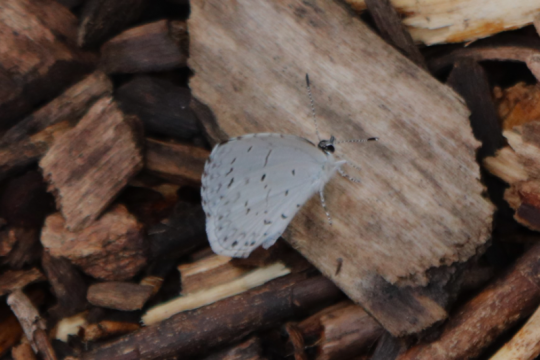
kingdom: Animalia
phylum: Arthropoda
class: Insecta
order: Lepidoptera
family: Lycaenidae
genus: Cyaniris
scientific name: Cyaniris neglecta
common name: Summer Azure
